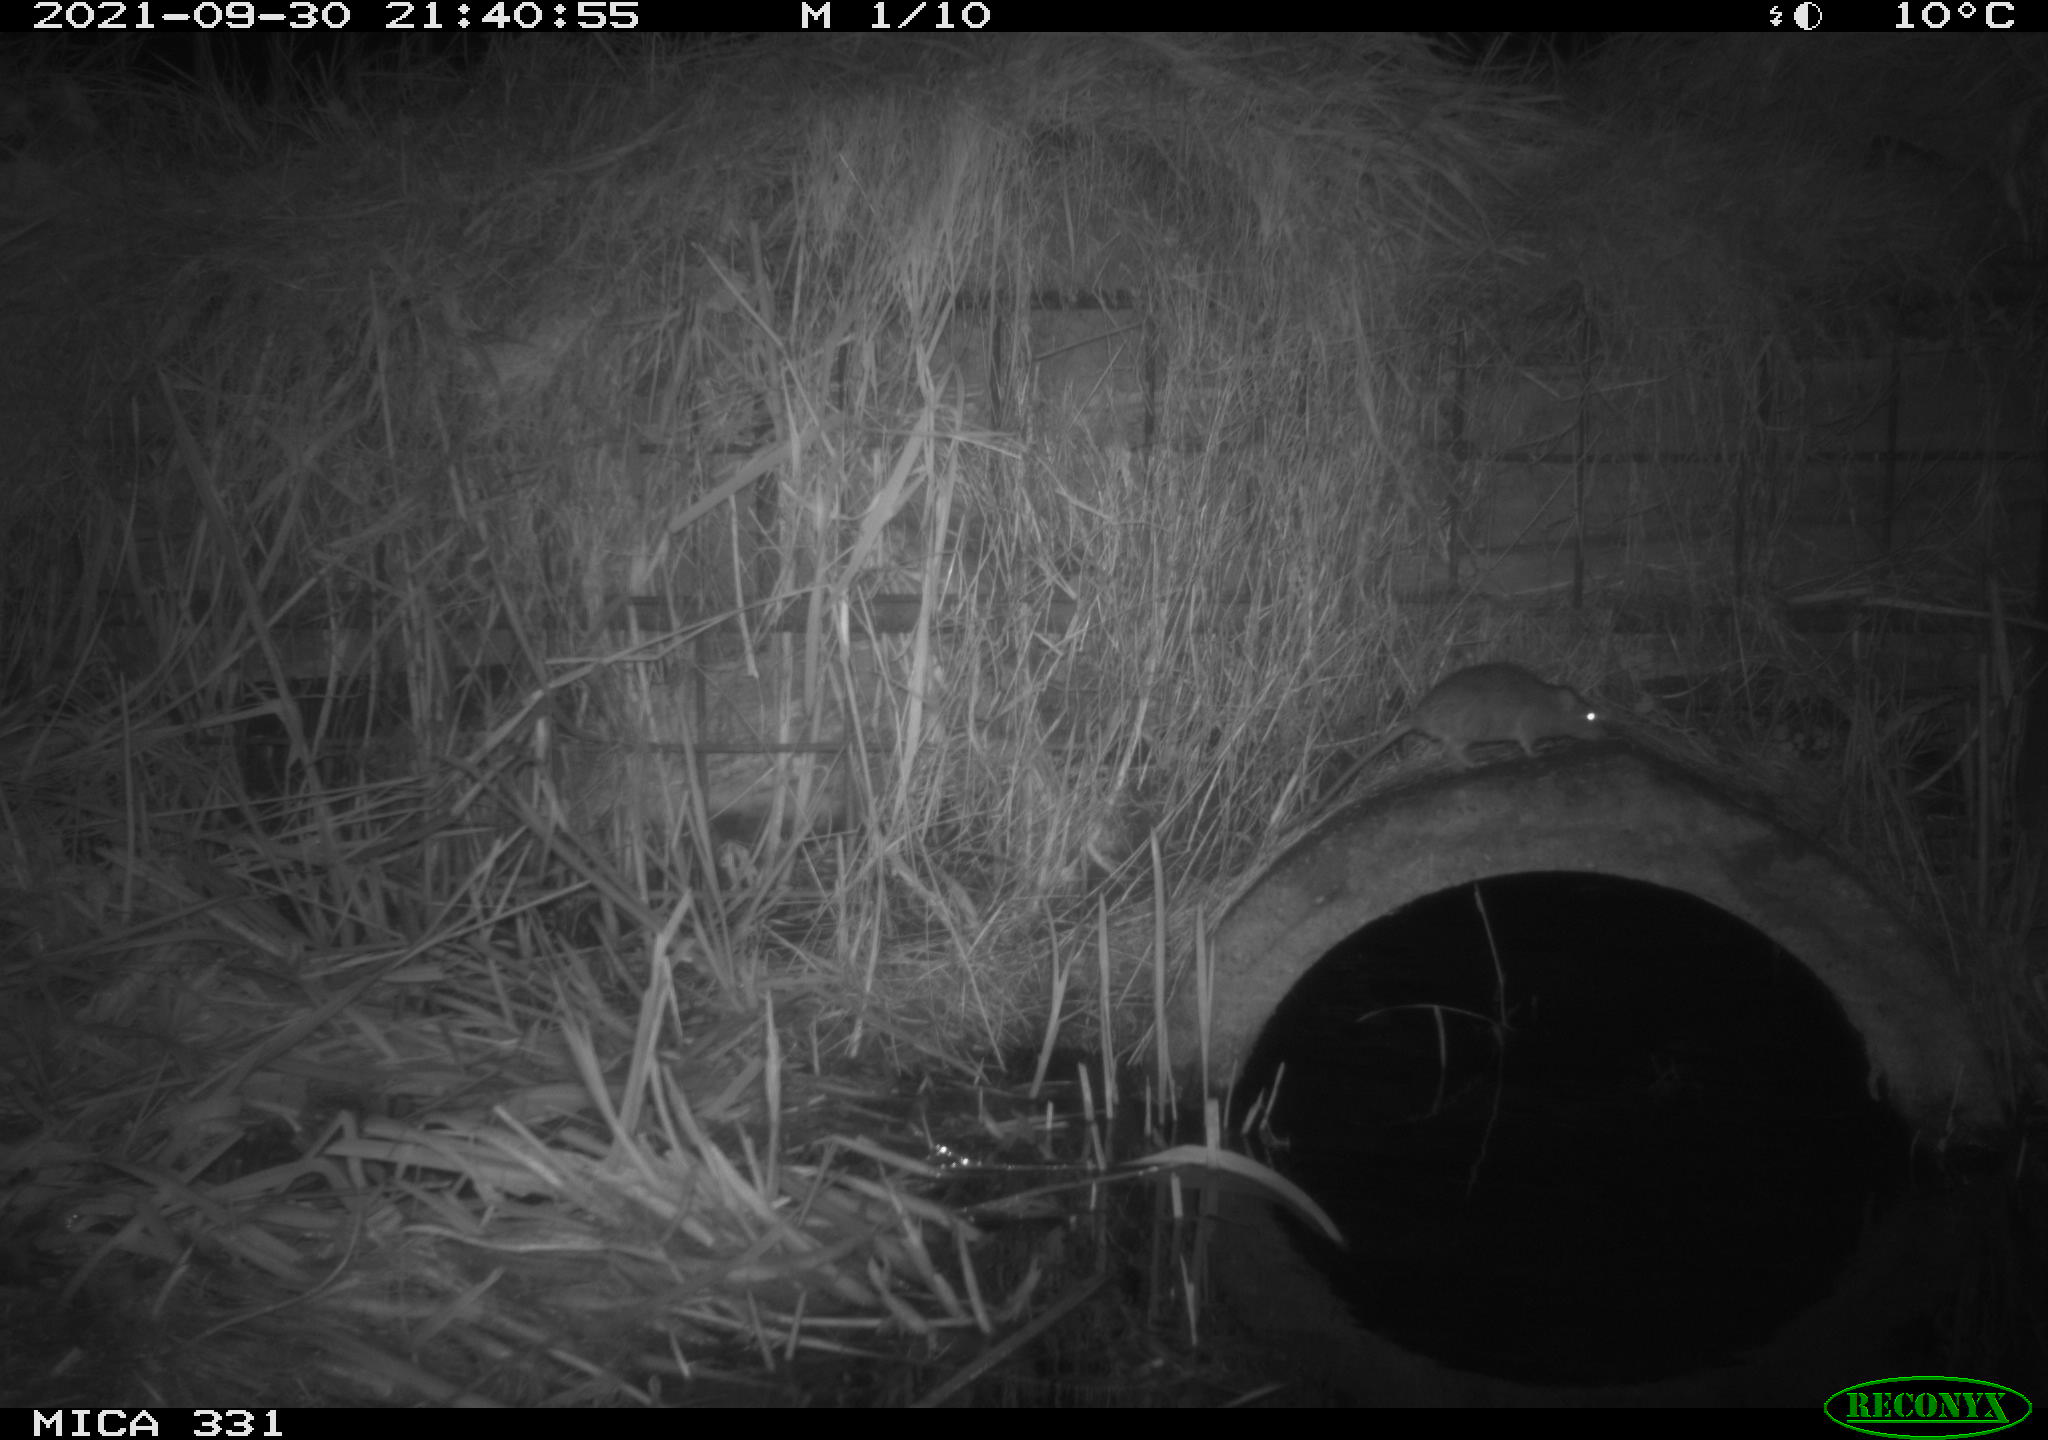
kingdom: Animalia
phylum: Chordata
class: Mammalia
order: Rodentia
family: Muridae
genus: Rattus
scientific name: Rattus norvegicus
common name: Brown rat
